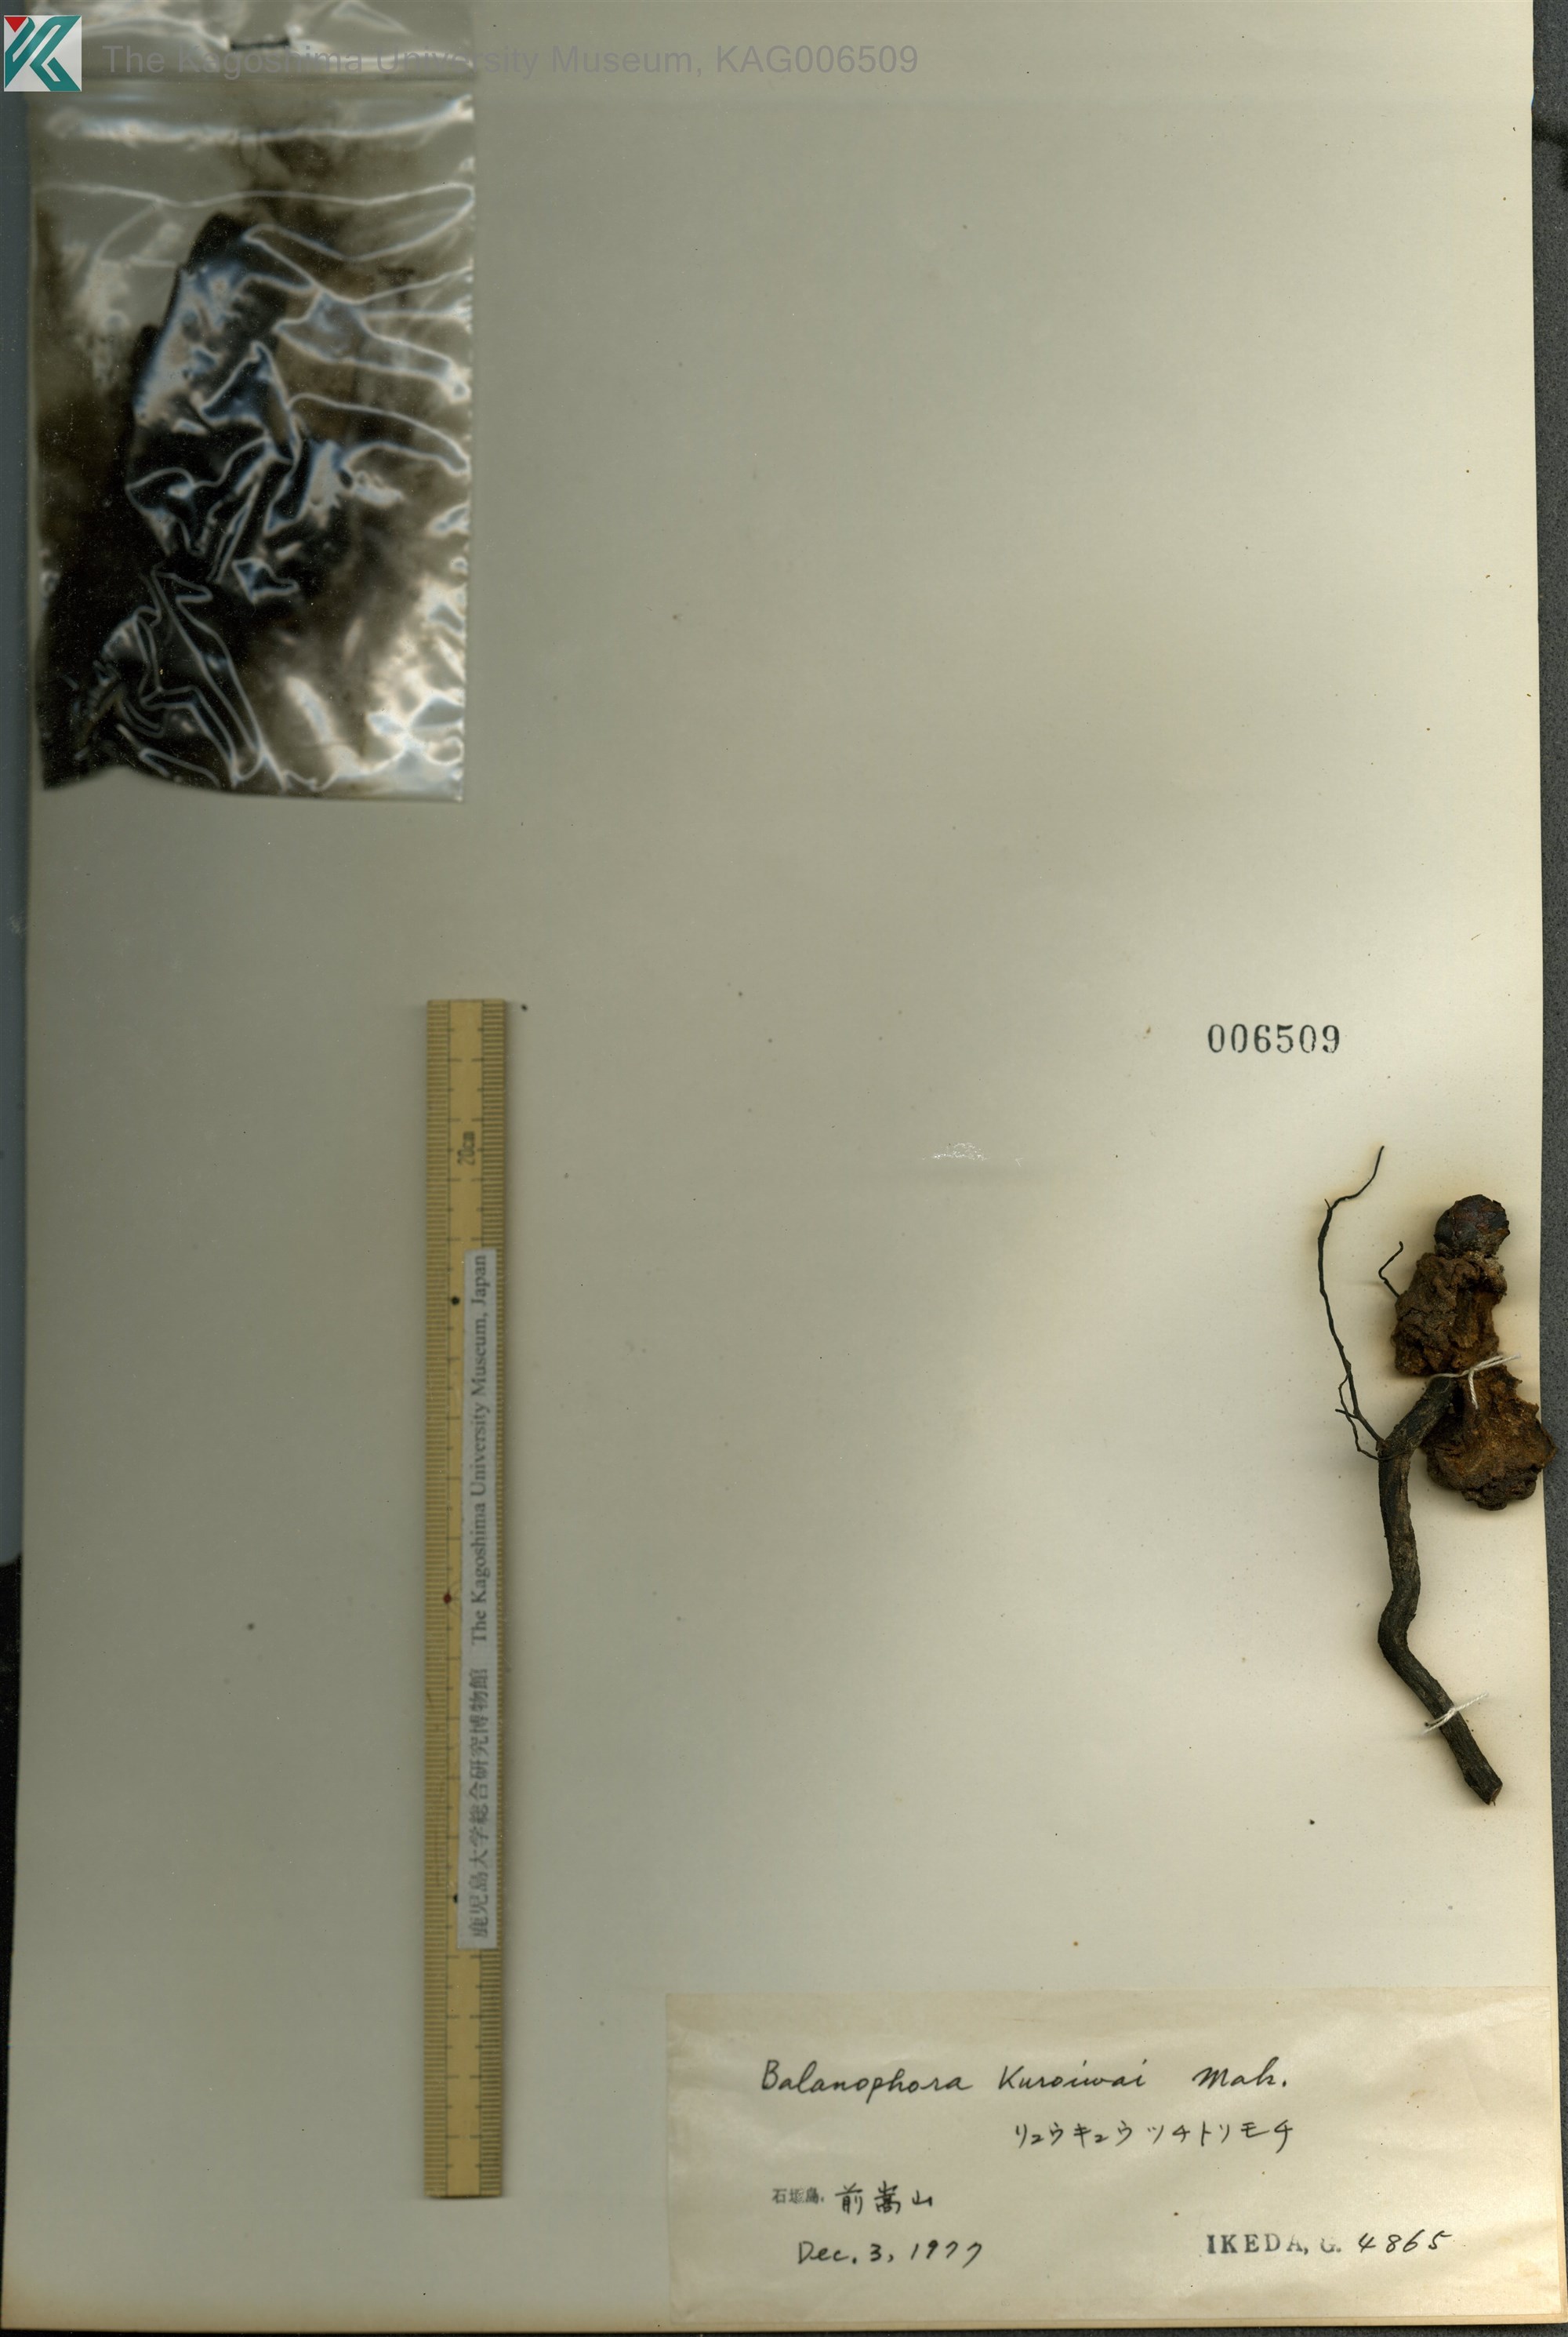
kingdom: Plantae
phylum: Tracheophyta
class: Magnoliopsida
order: Santalales
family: Balanophoraceae
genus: Balanophora
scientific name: Balanophora fungosa
